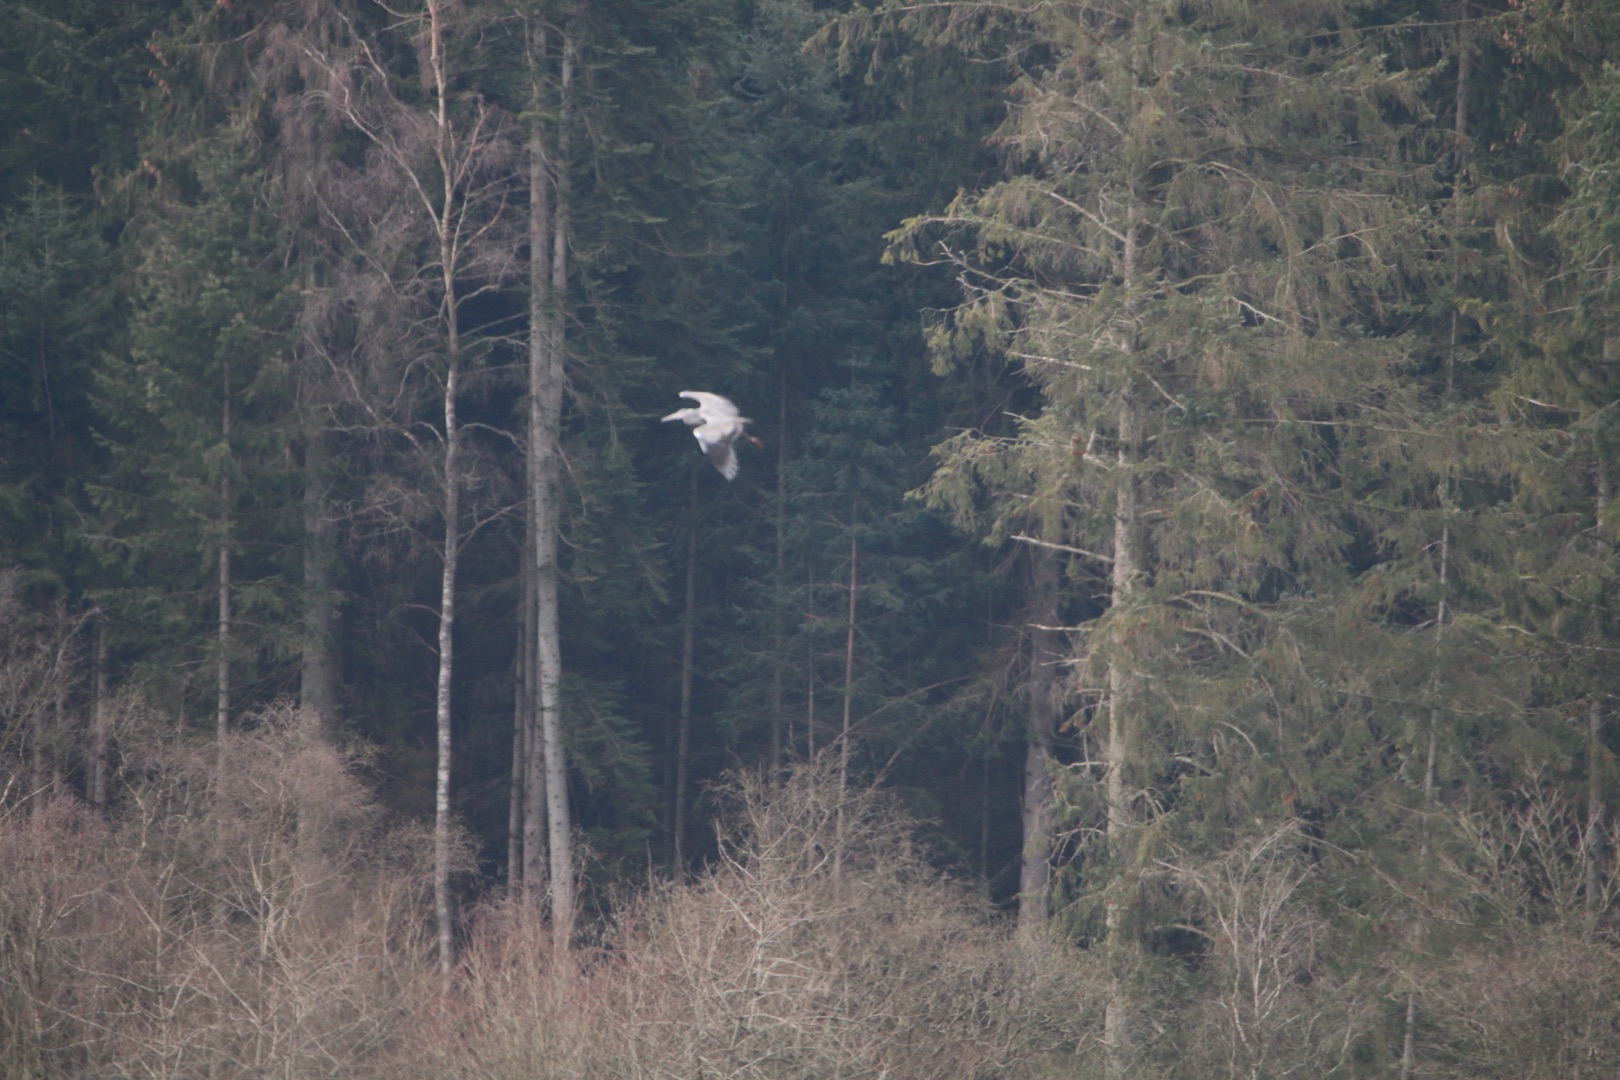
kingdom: Animalia
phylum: Chordata
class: Aves
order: Pelecaniformes
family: Ardeidae
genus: Ardea
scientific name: Ardea cinerea
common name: Fiskehejre
